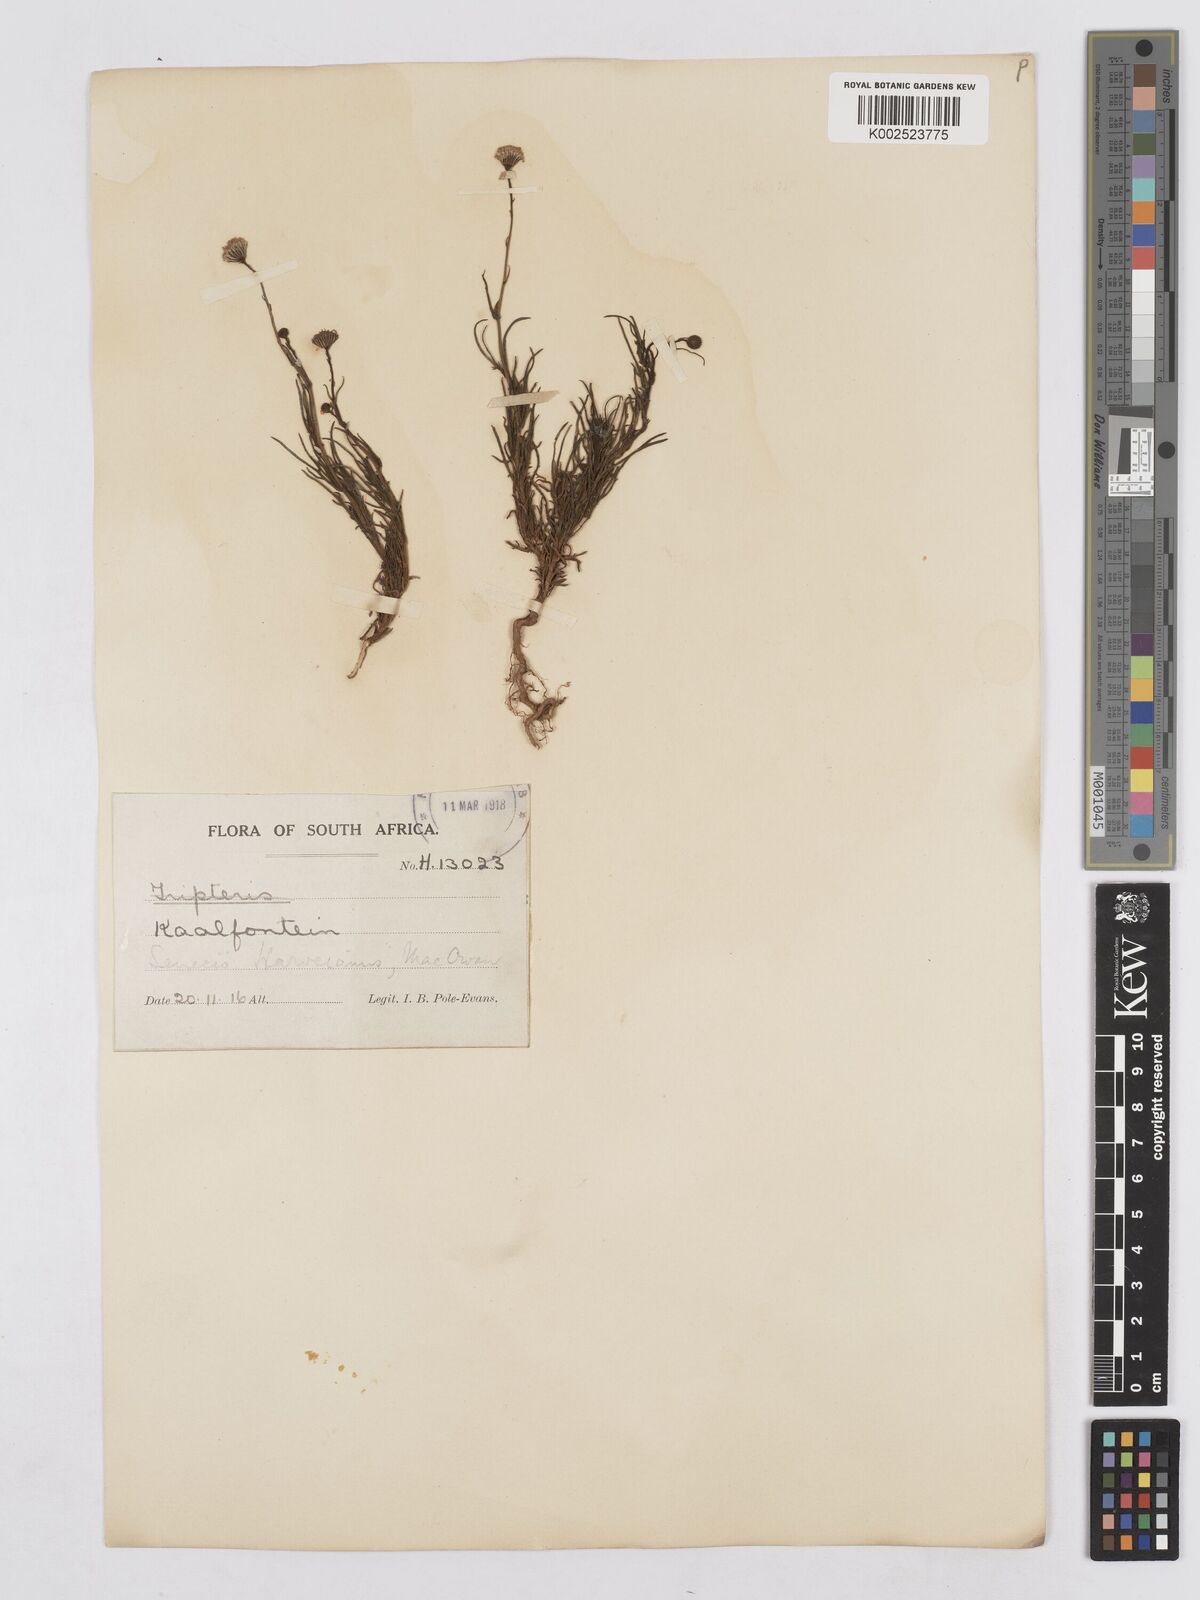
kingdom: Plantae
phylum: Tracheophyta
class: Magnoliopsida
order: Asterales
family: Asteraceae
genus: Senecio
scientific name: Senecio harveyanus
